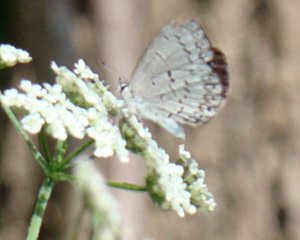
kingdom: Animalia
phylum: Arthropoda
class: Insecta
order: Lepidoptera
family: Lycaenidae
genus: Cyaniris
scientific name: Cyaniris neglecta
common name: Summer Azure
